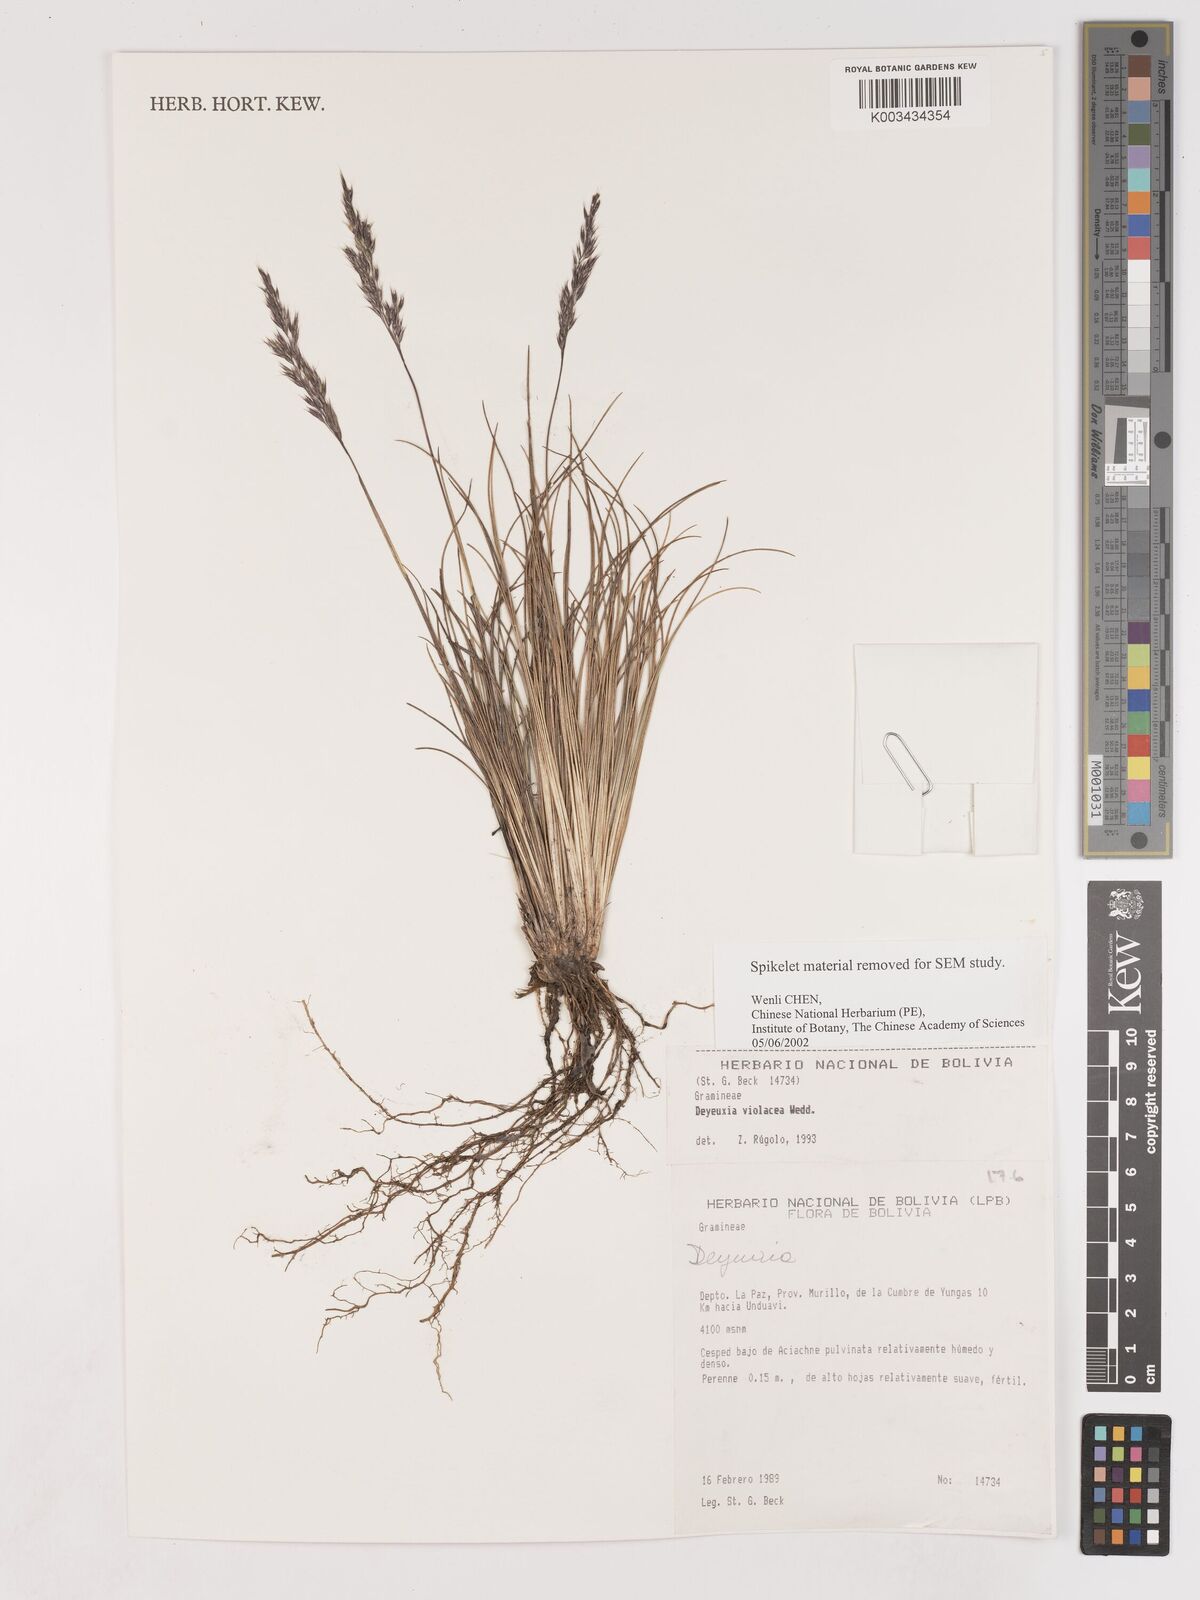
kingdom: Plantae
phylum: Tracheophyta
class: Liliopsida
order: Poales
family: Poaceae
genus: Cinnagrostis
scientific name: Cinnagrostis violacea
